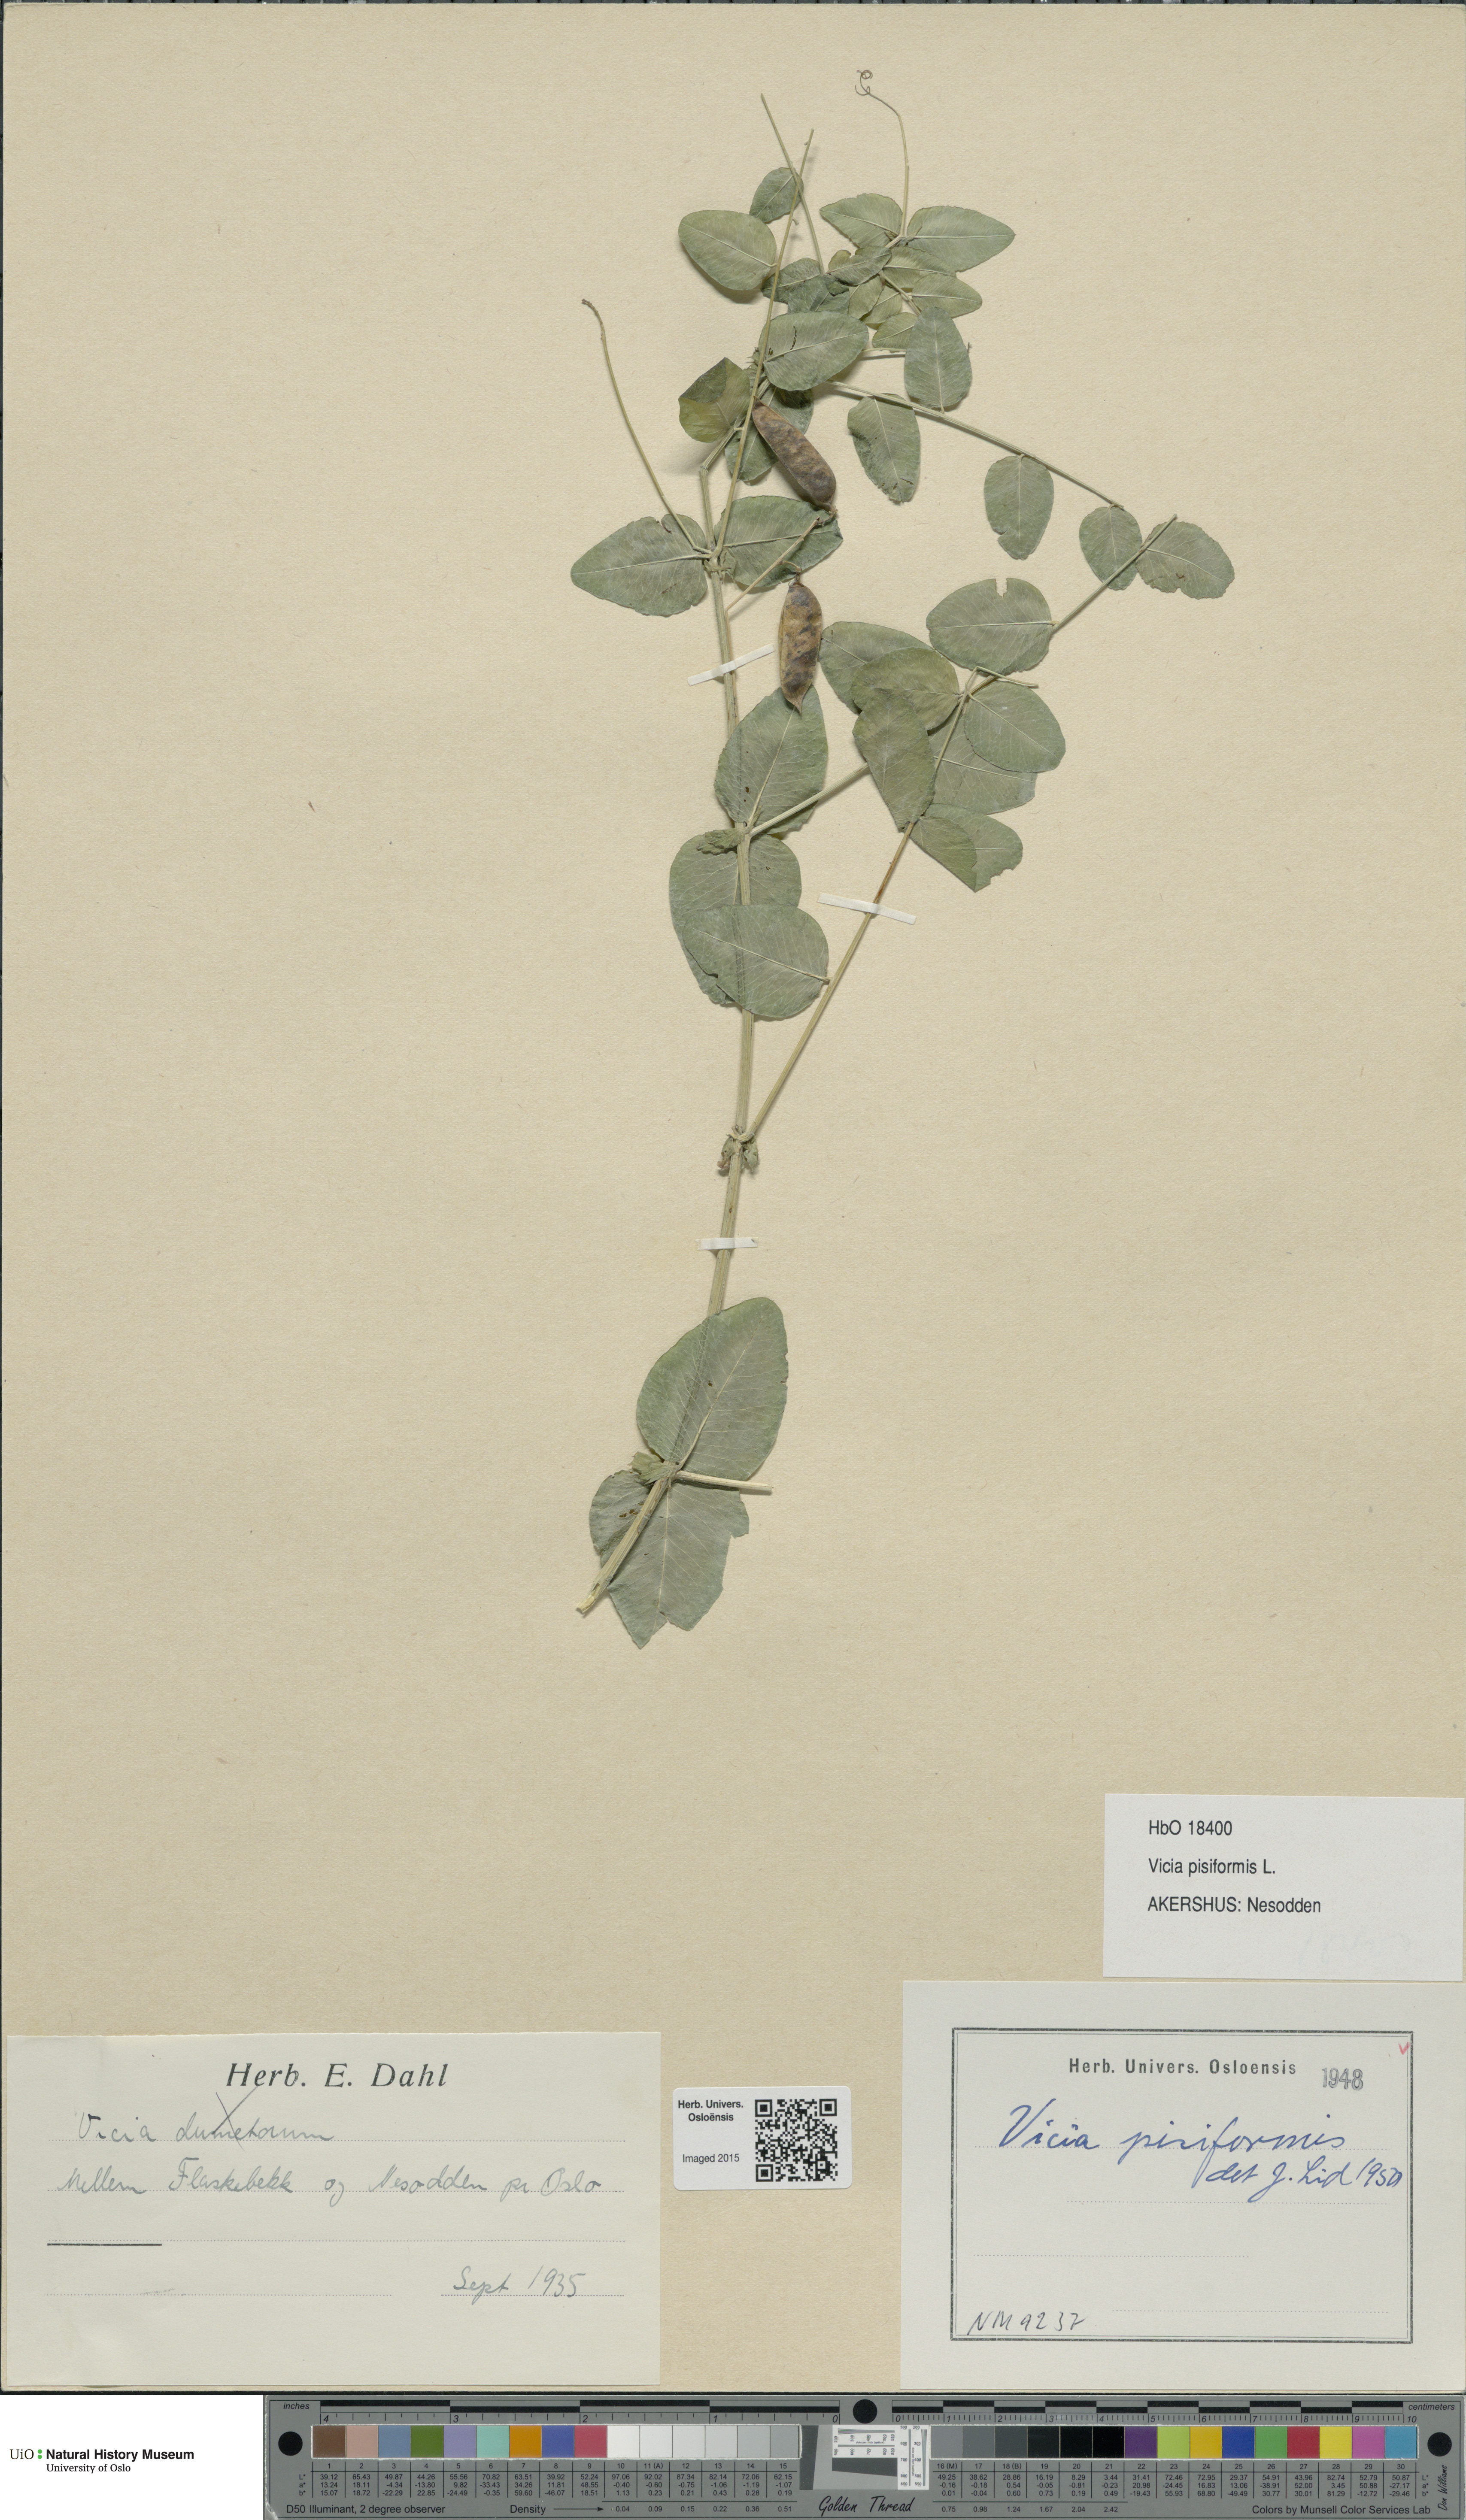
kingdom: Plantae
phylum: Tracheophyta
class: Magnoliopsida
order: Fabales
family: Fabaceae
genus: Vicia
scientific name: Vicia pisiformis
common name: Pale-flower vetch
